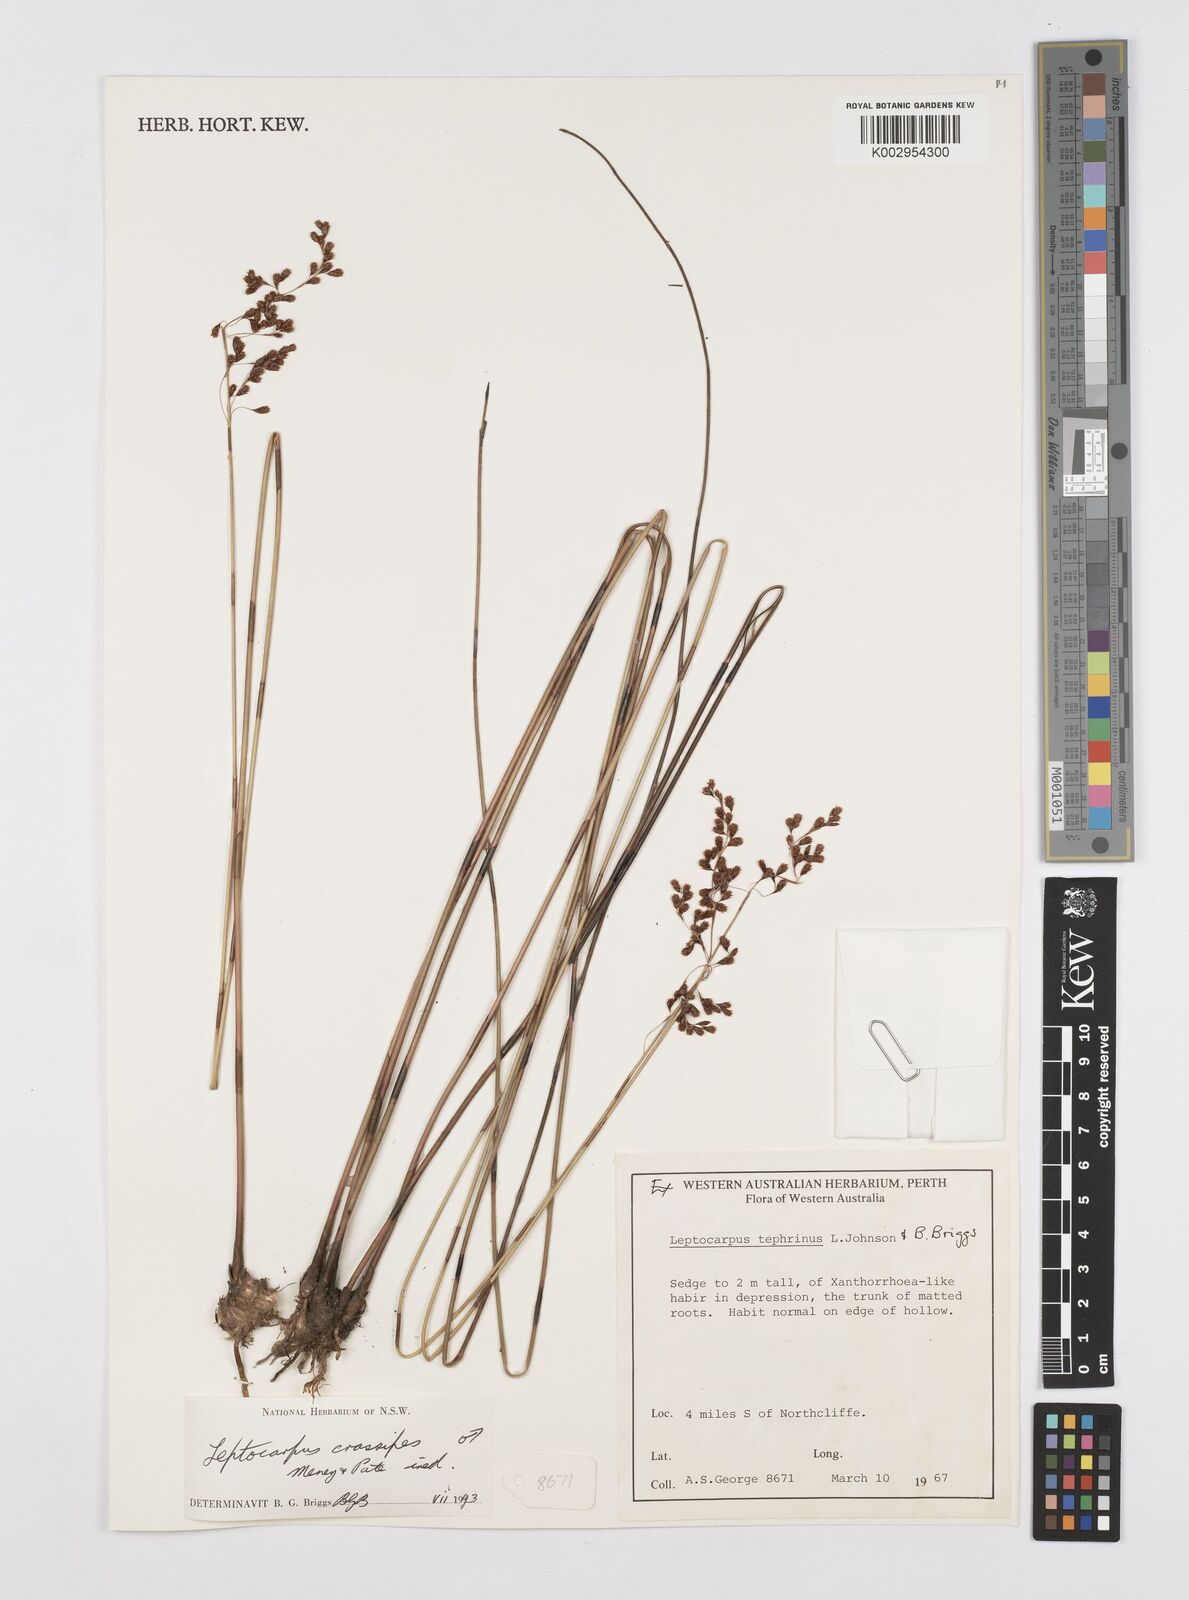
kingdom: Plantae
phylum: Tracheophyta
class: Liliopsida
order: Poales
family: Restionaceae
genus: Leptocarpus
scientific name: Leptocarpus crassipes
